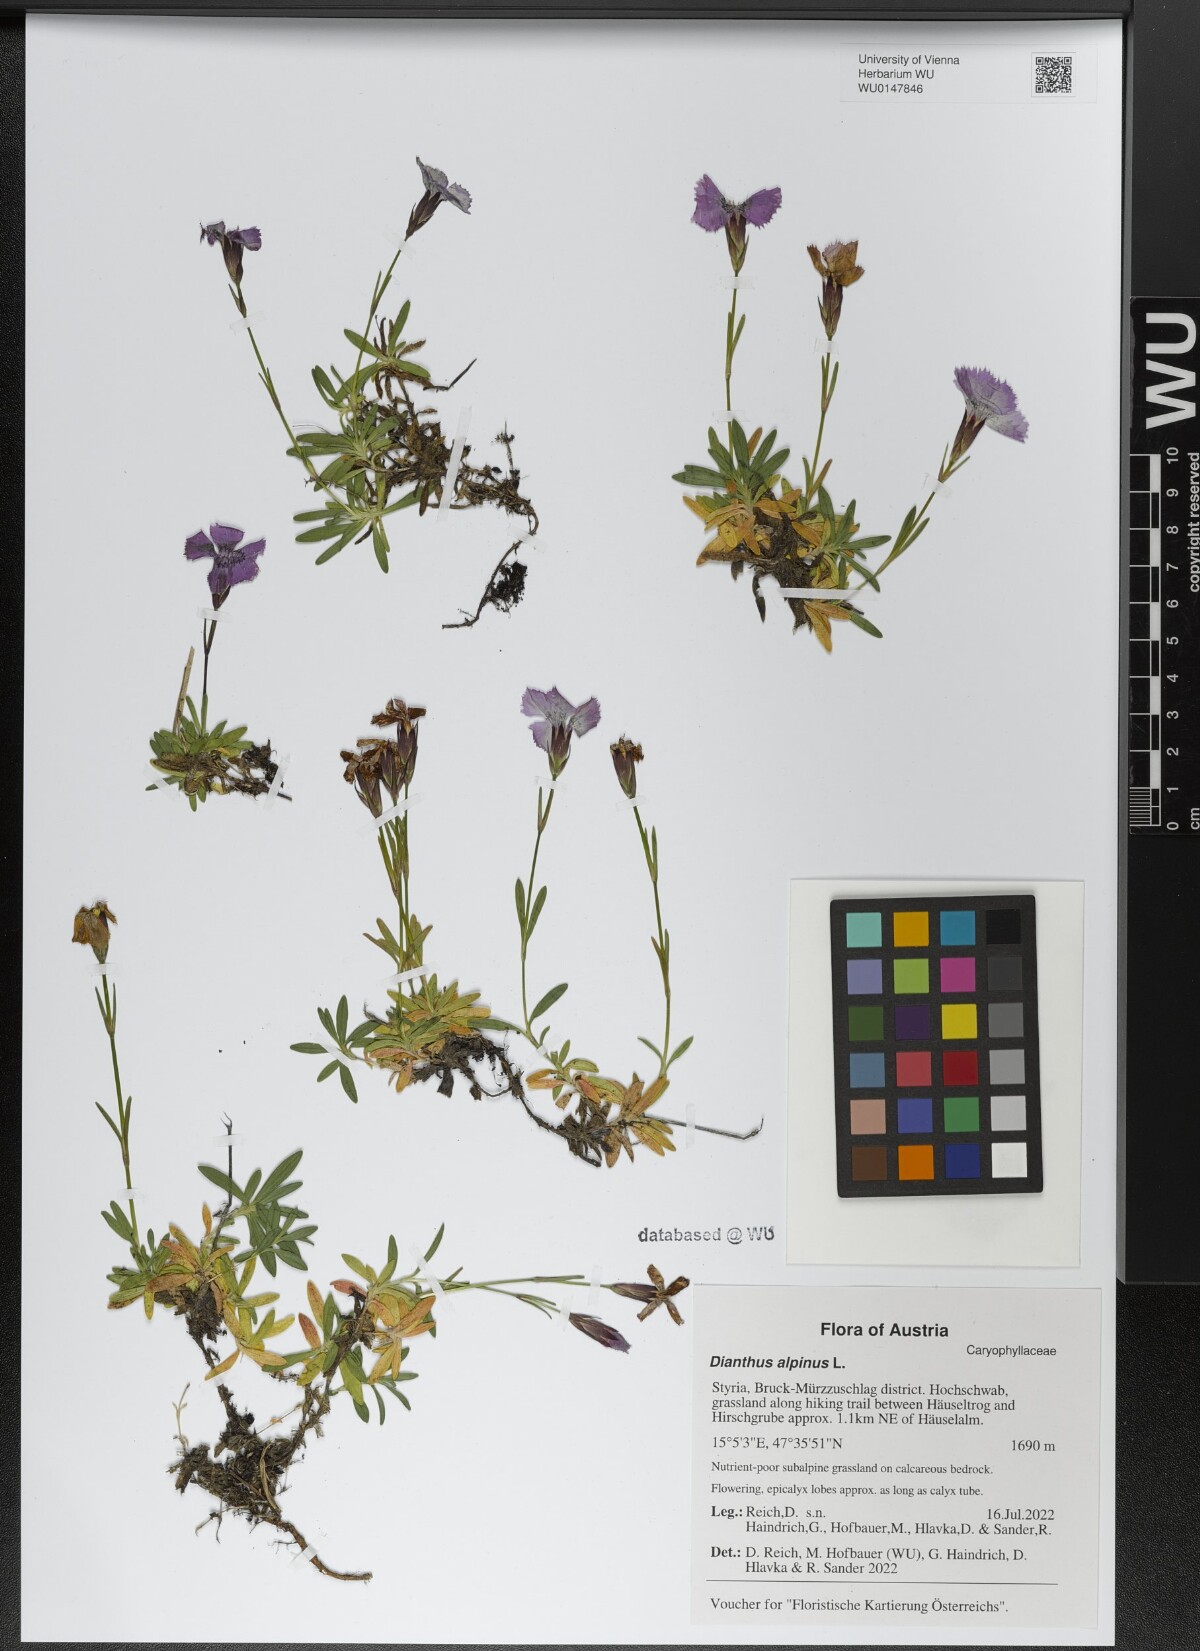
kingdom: Plantae
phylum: Tracheophyta
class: Magnoliopsida
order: Caryophyllales
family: Caryophyllaceae
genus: Dianthus
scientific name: Dianthus alpinus
